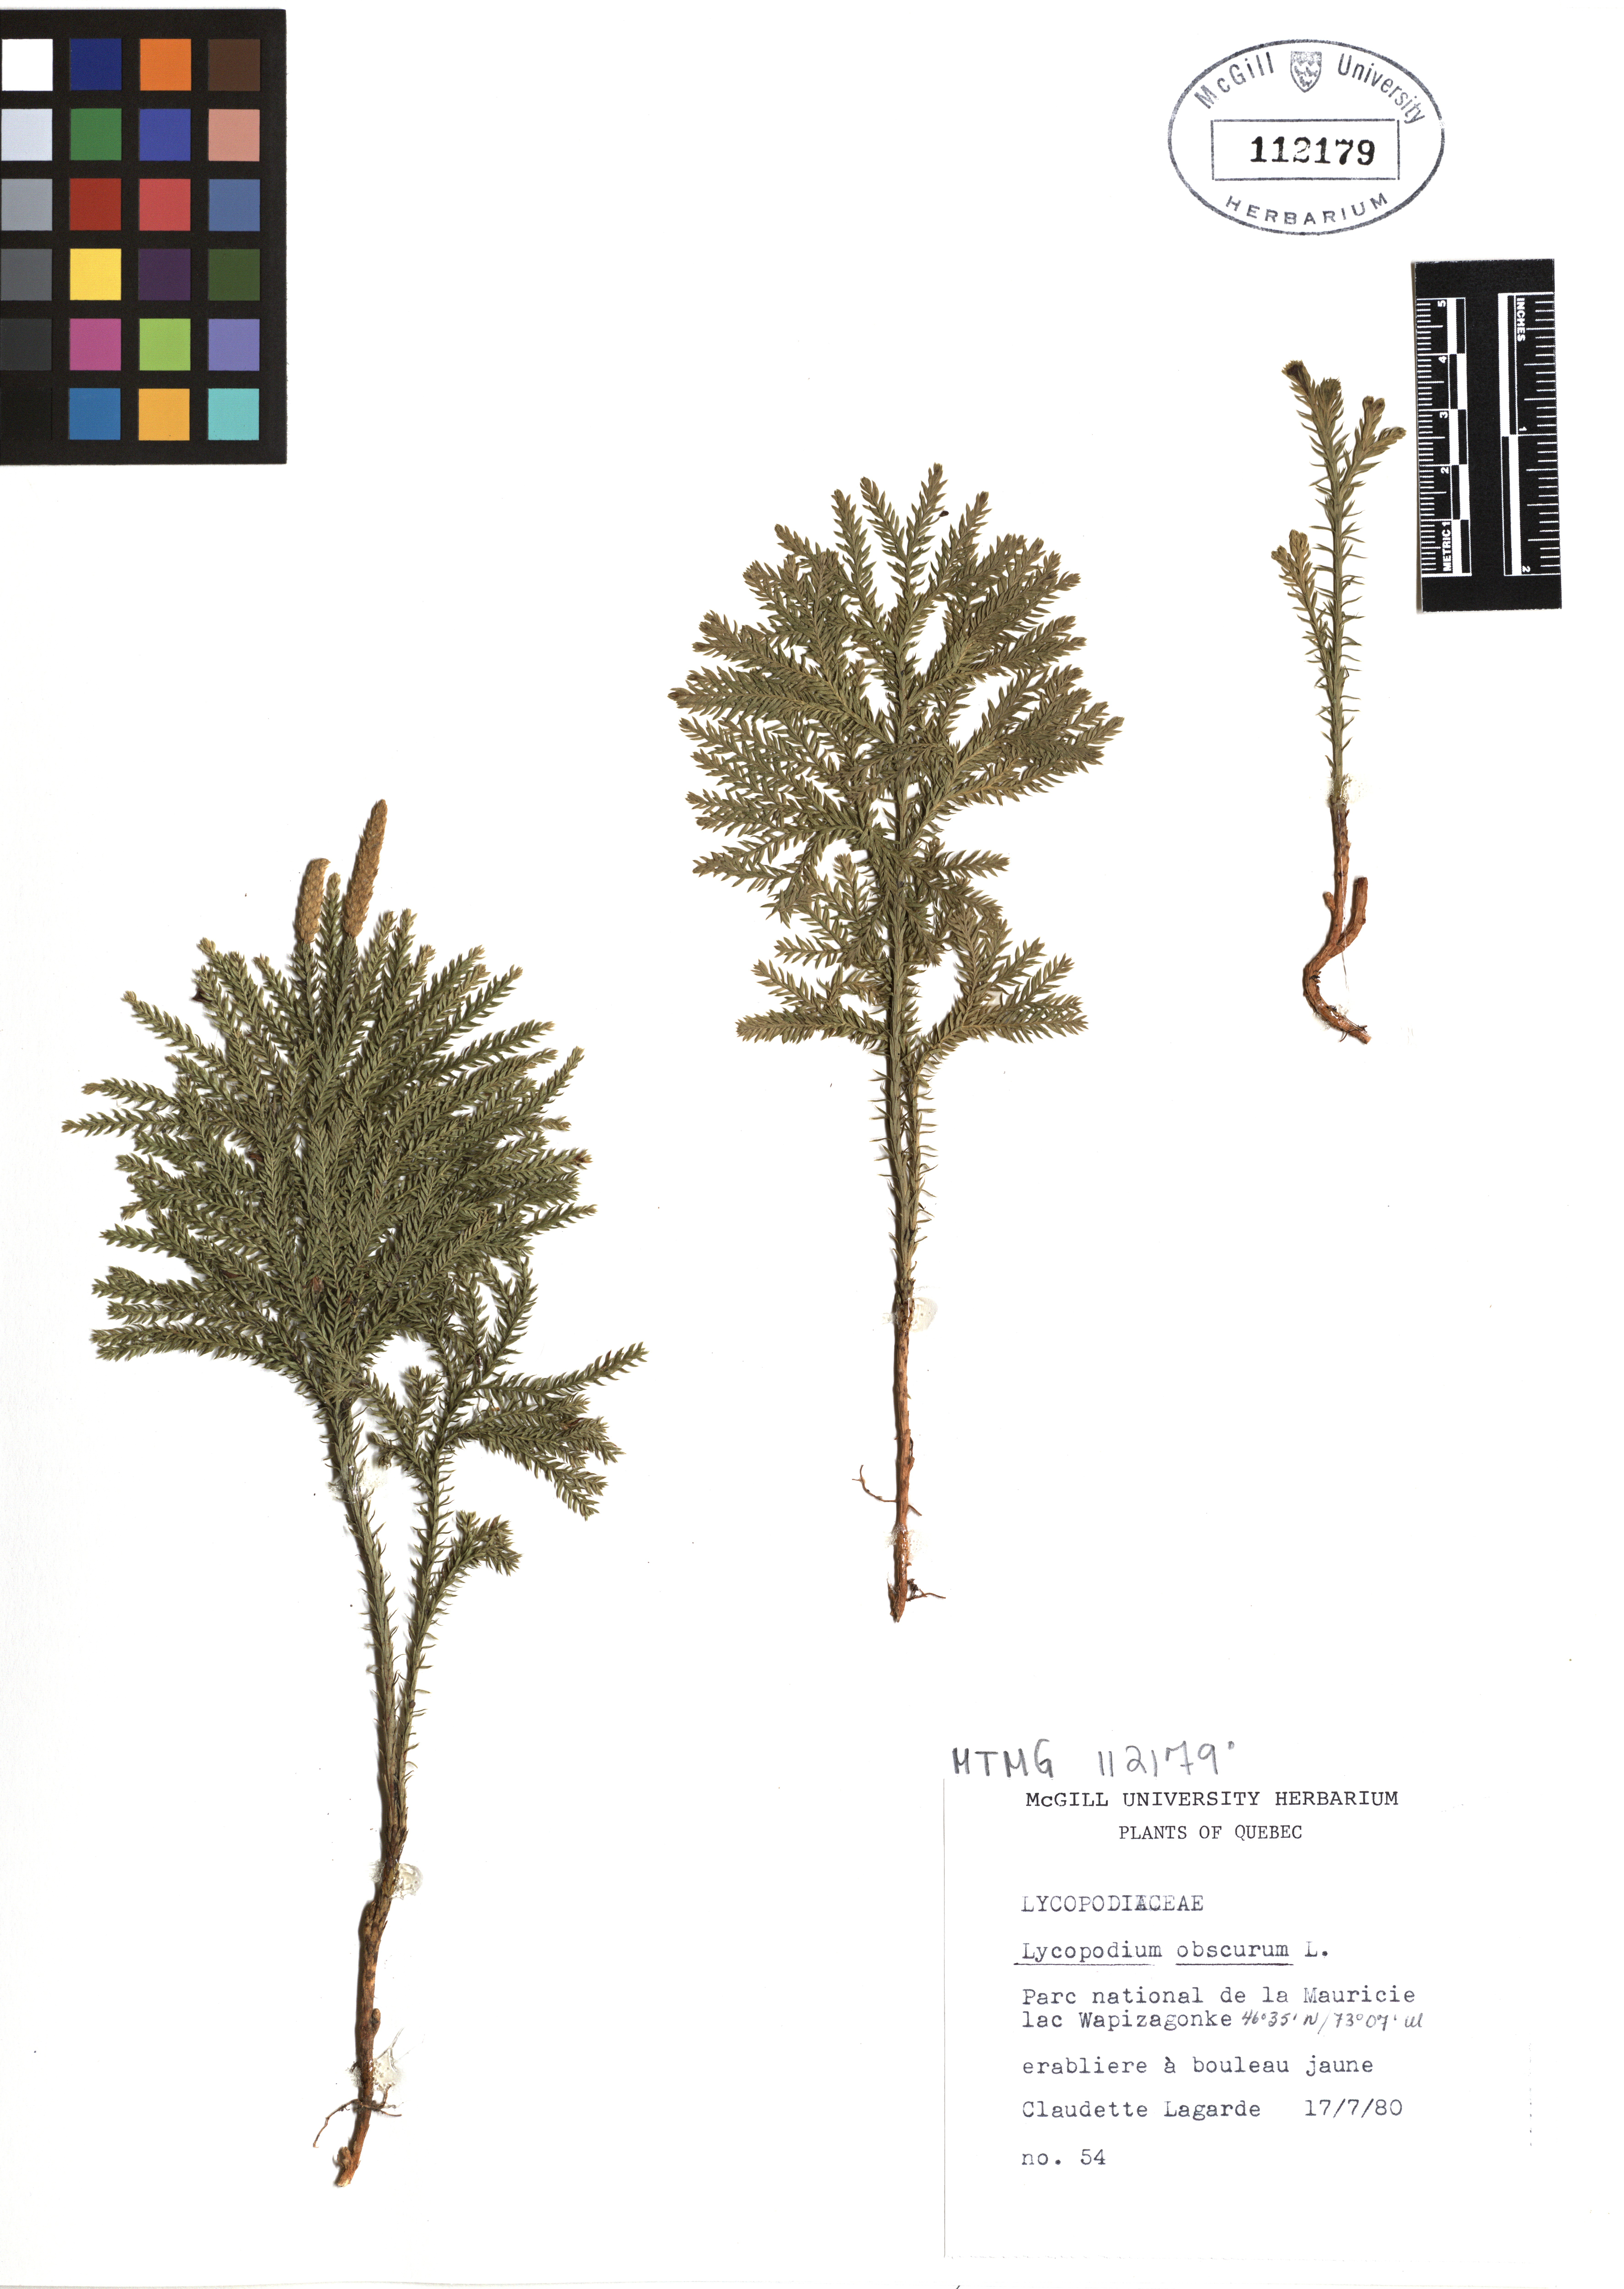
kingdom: Plantae
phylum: Tracheophyta
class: Lycopodiopsida
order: Lycopodiales
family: Lycopodiaceae
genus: Dendrolycopodium
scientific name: Dendrolycopodium obscurum
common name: Common ground-pine
